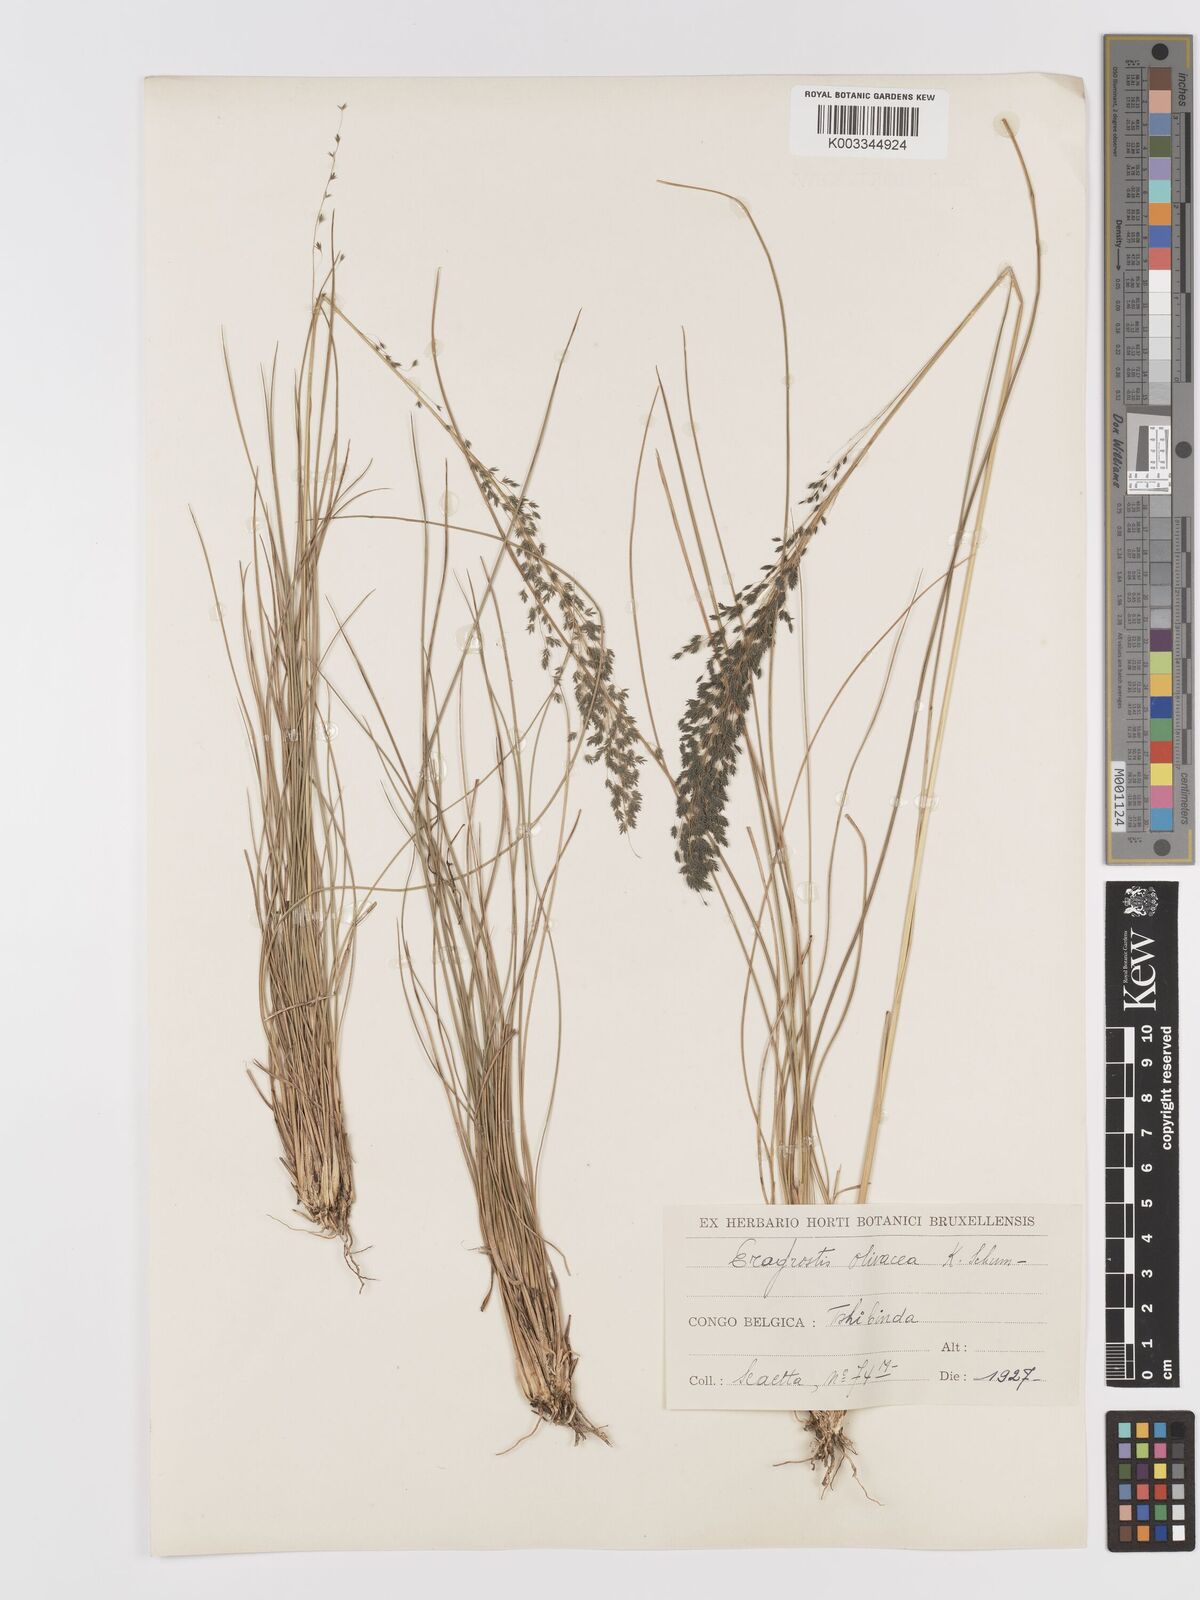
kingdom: Plantae
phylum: Tracheophyta
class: Liliopsida
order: Poales
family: Poaceae
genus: Eragrostis
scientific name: Eragrostis olivacea
